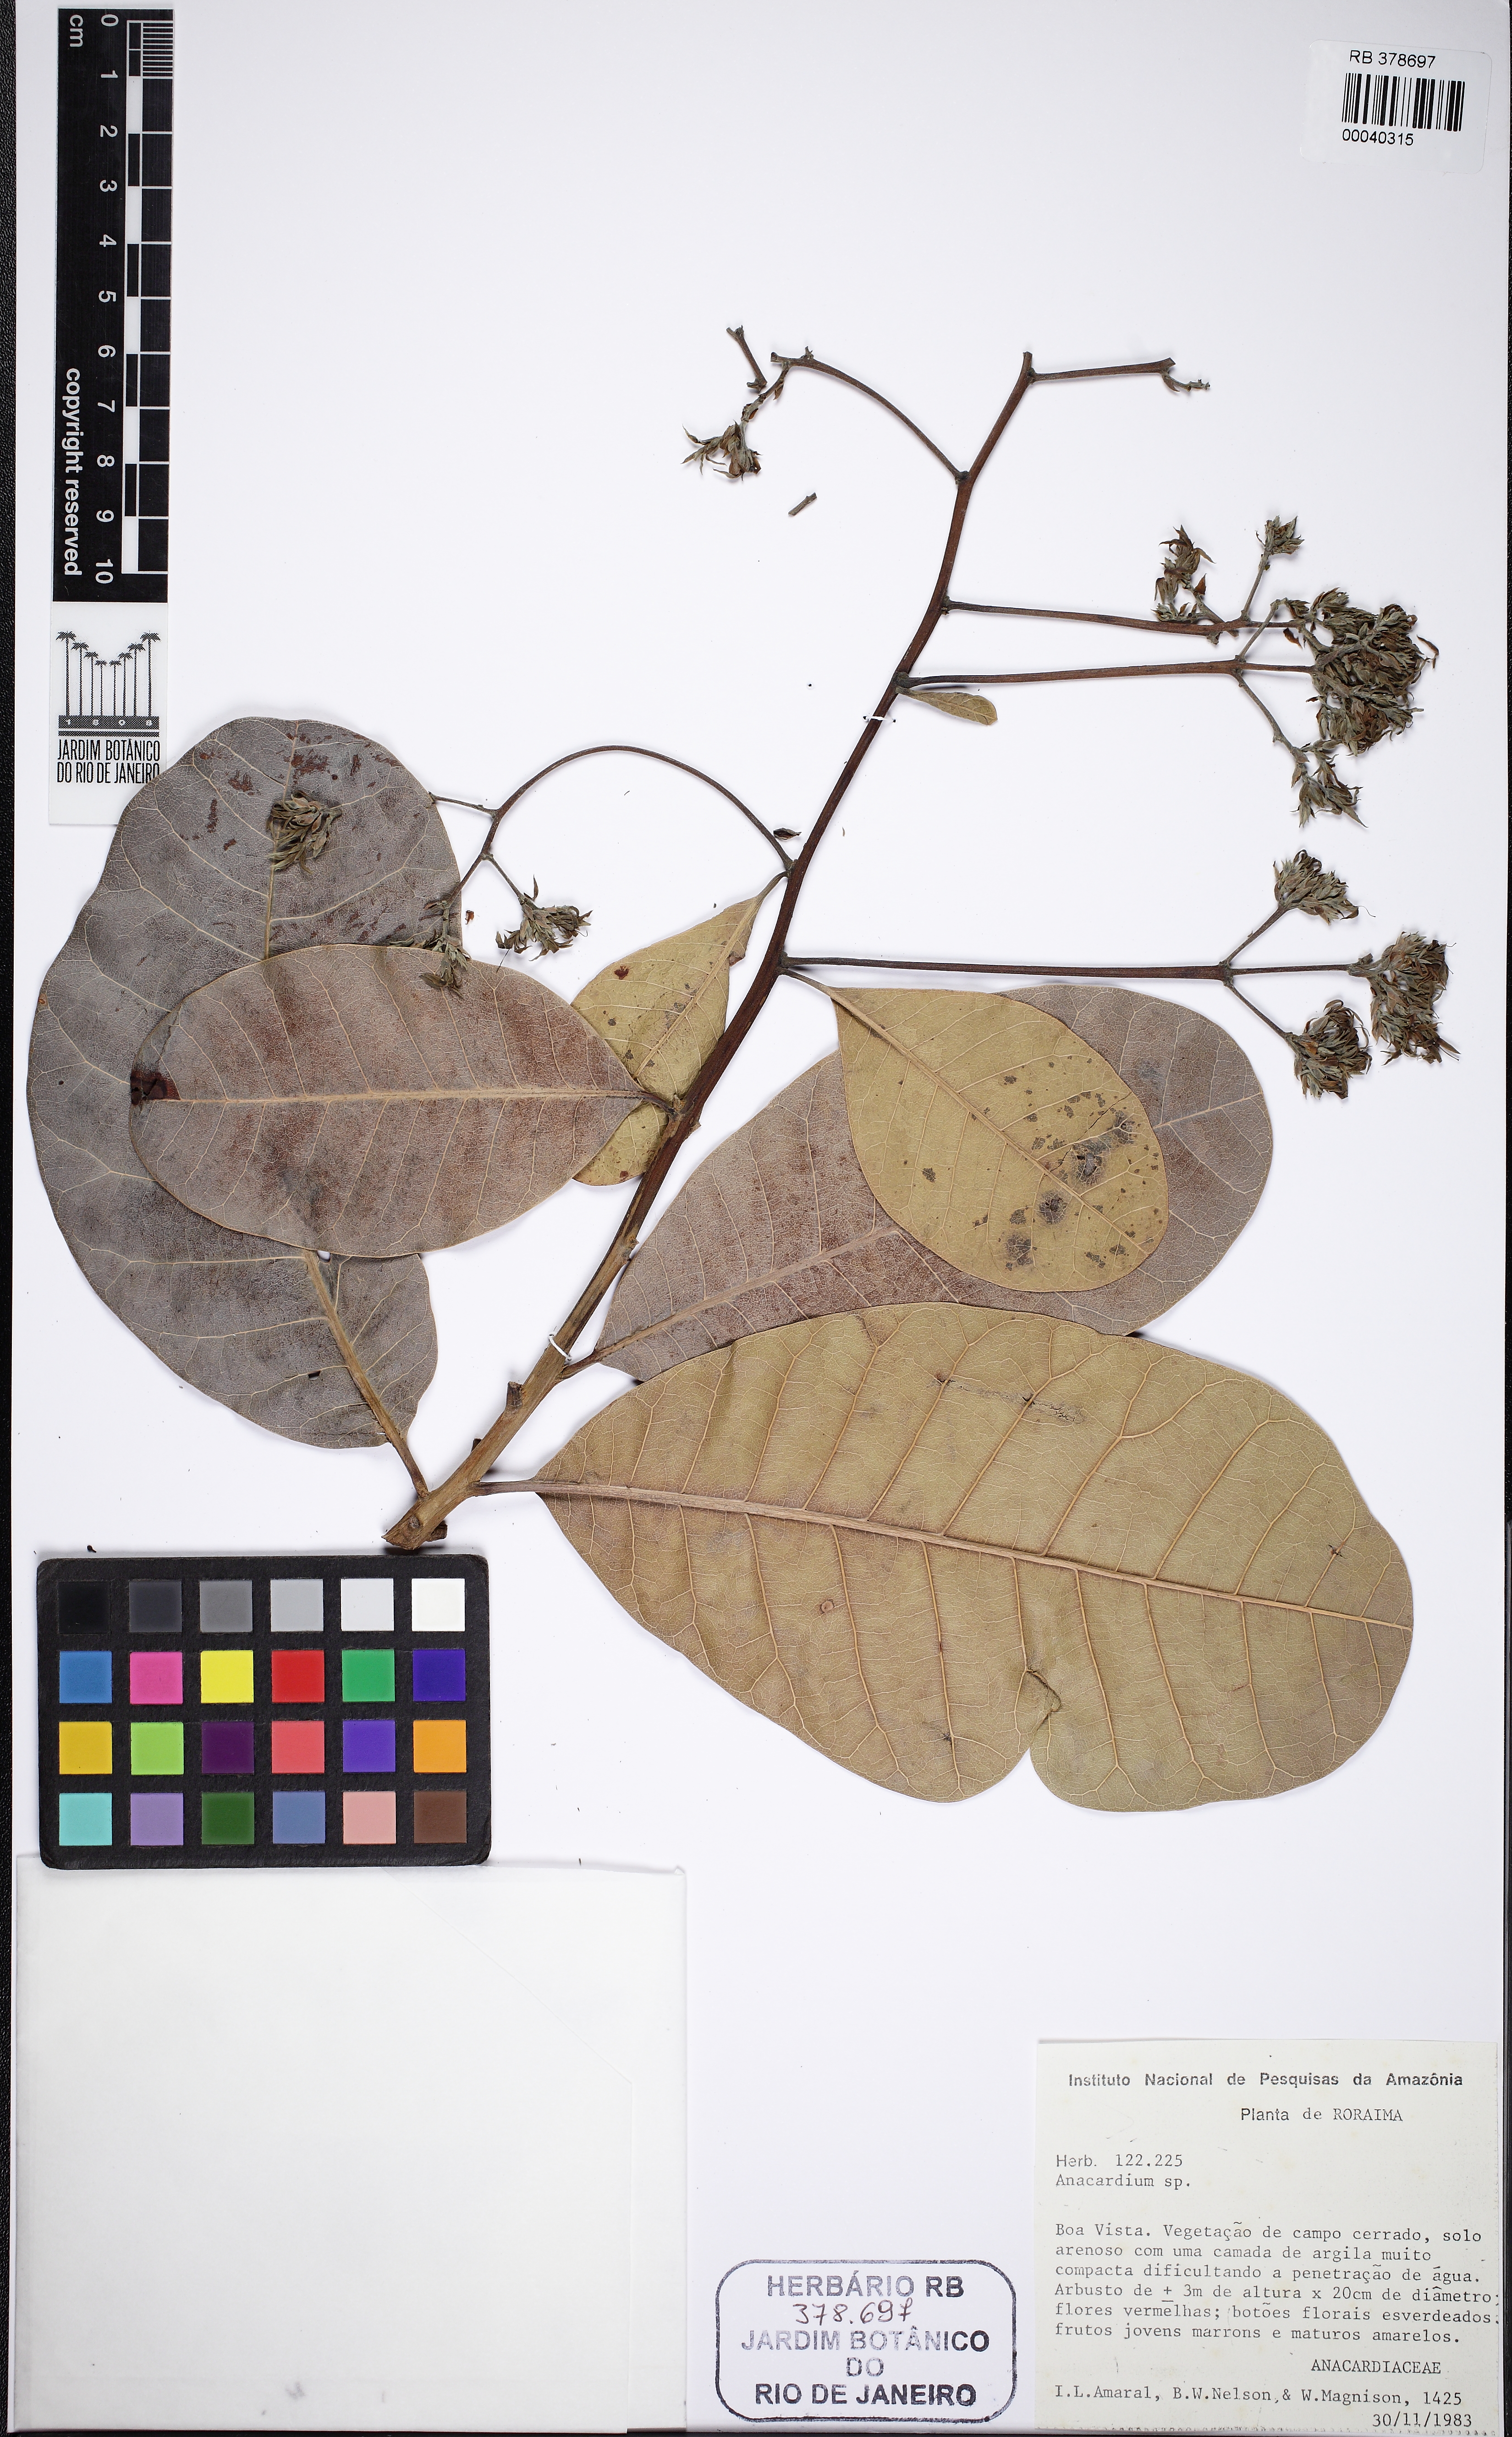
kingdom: Plantae
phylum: Tracheophyta
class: Magnoliopsida
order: Sapindales
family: Anacardiaceae
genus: Anacardium
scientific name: Anacardium occidentale
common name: Cashew
